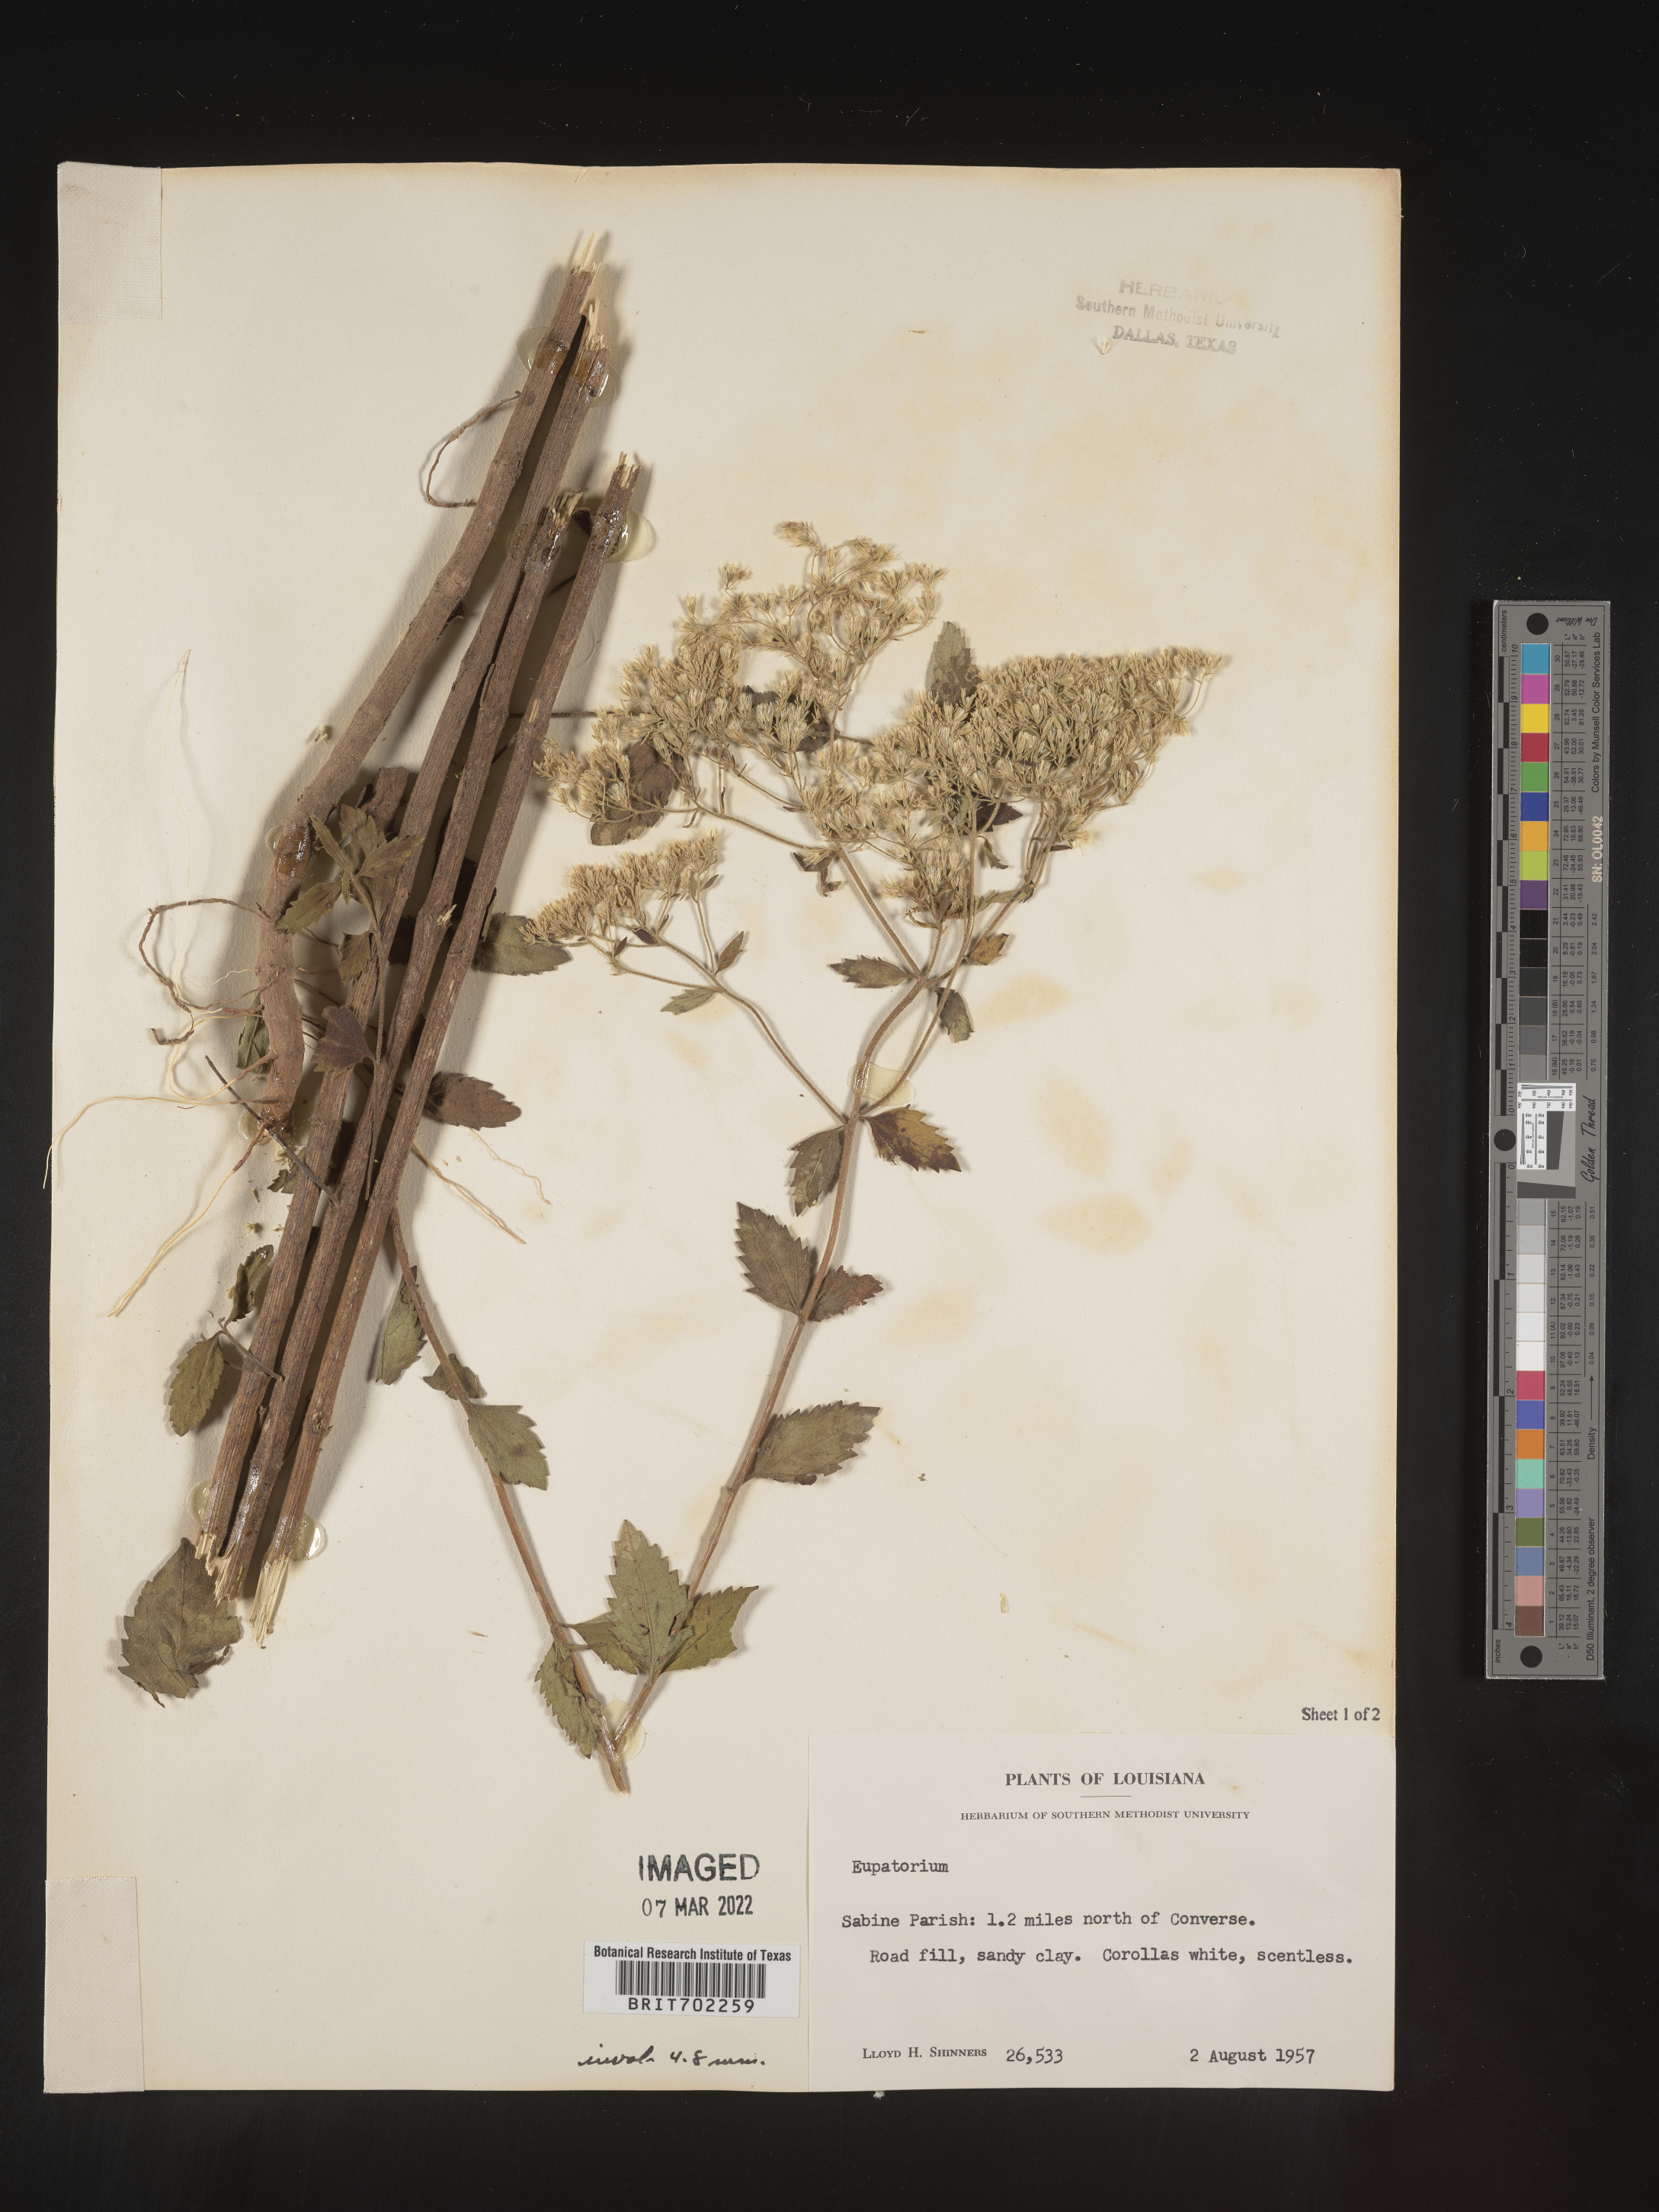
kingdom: Plantae
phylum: Tracheophyta
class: Magnoliopsida
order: Asterales
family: Asteraceae
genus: Eupatorium
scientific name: Eupatorium
